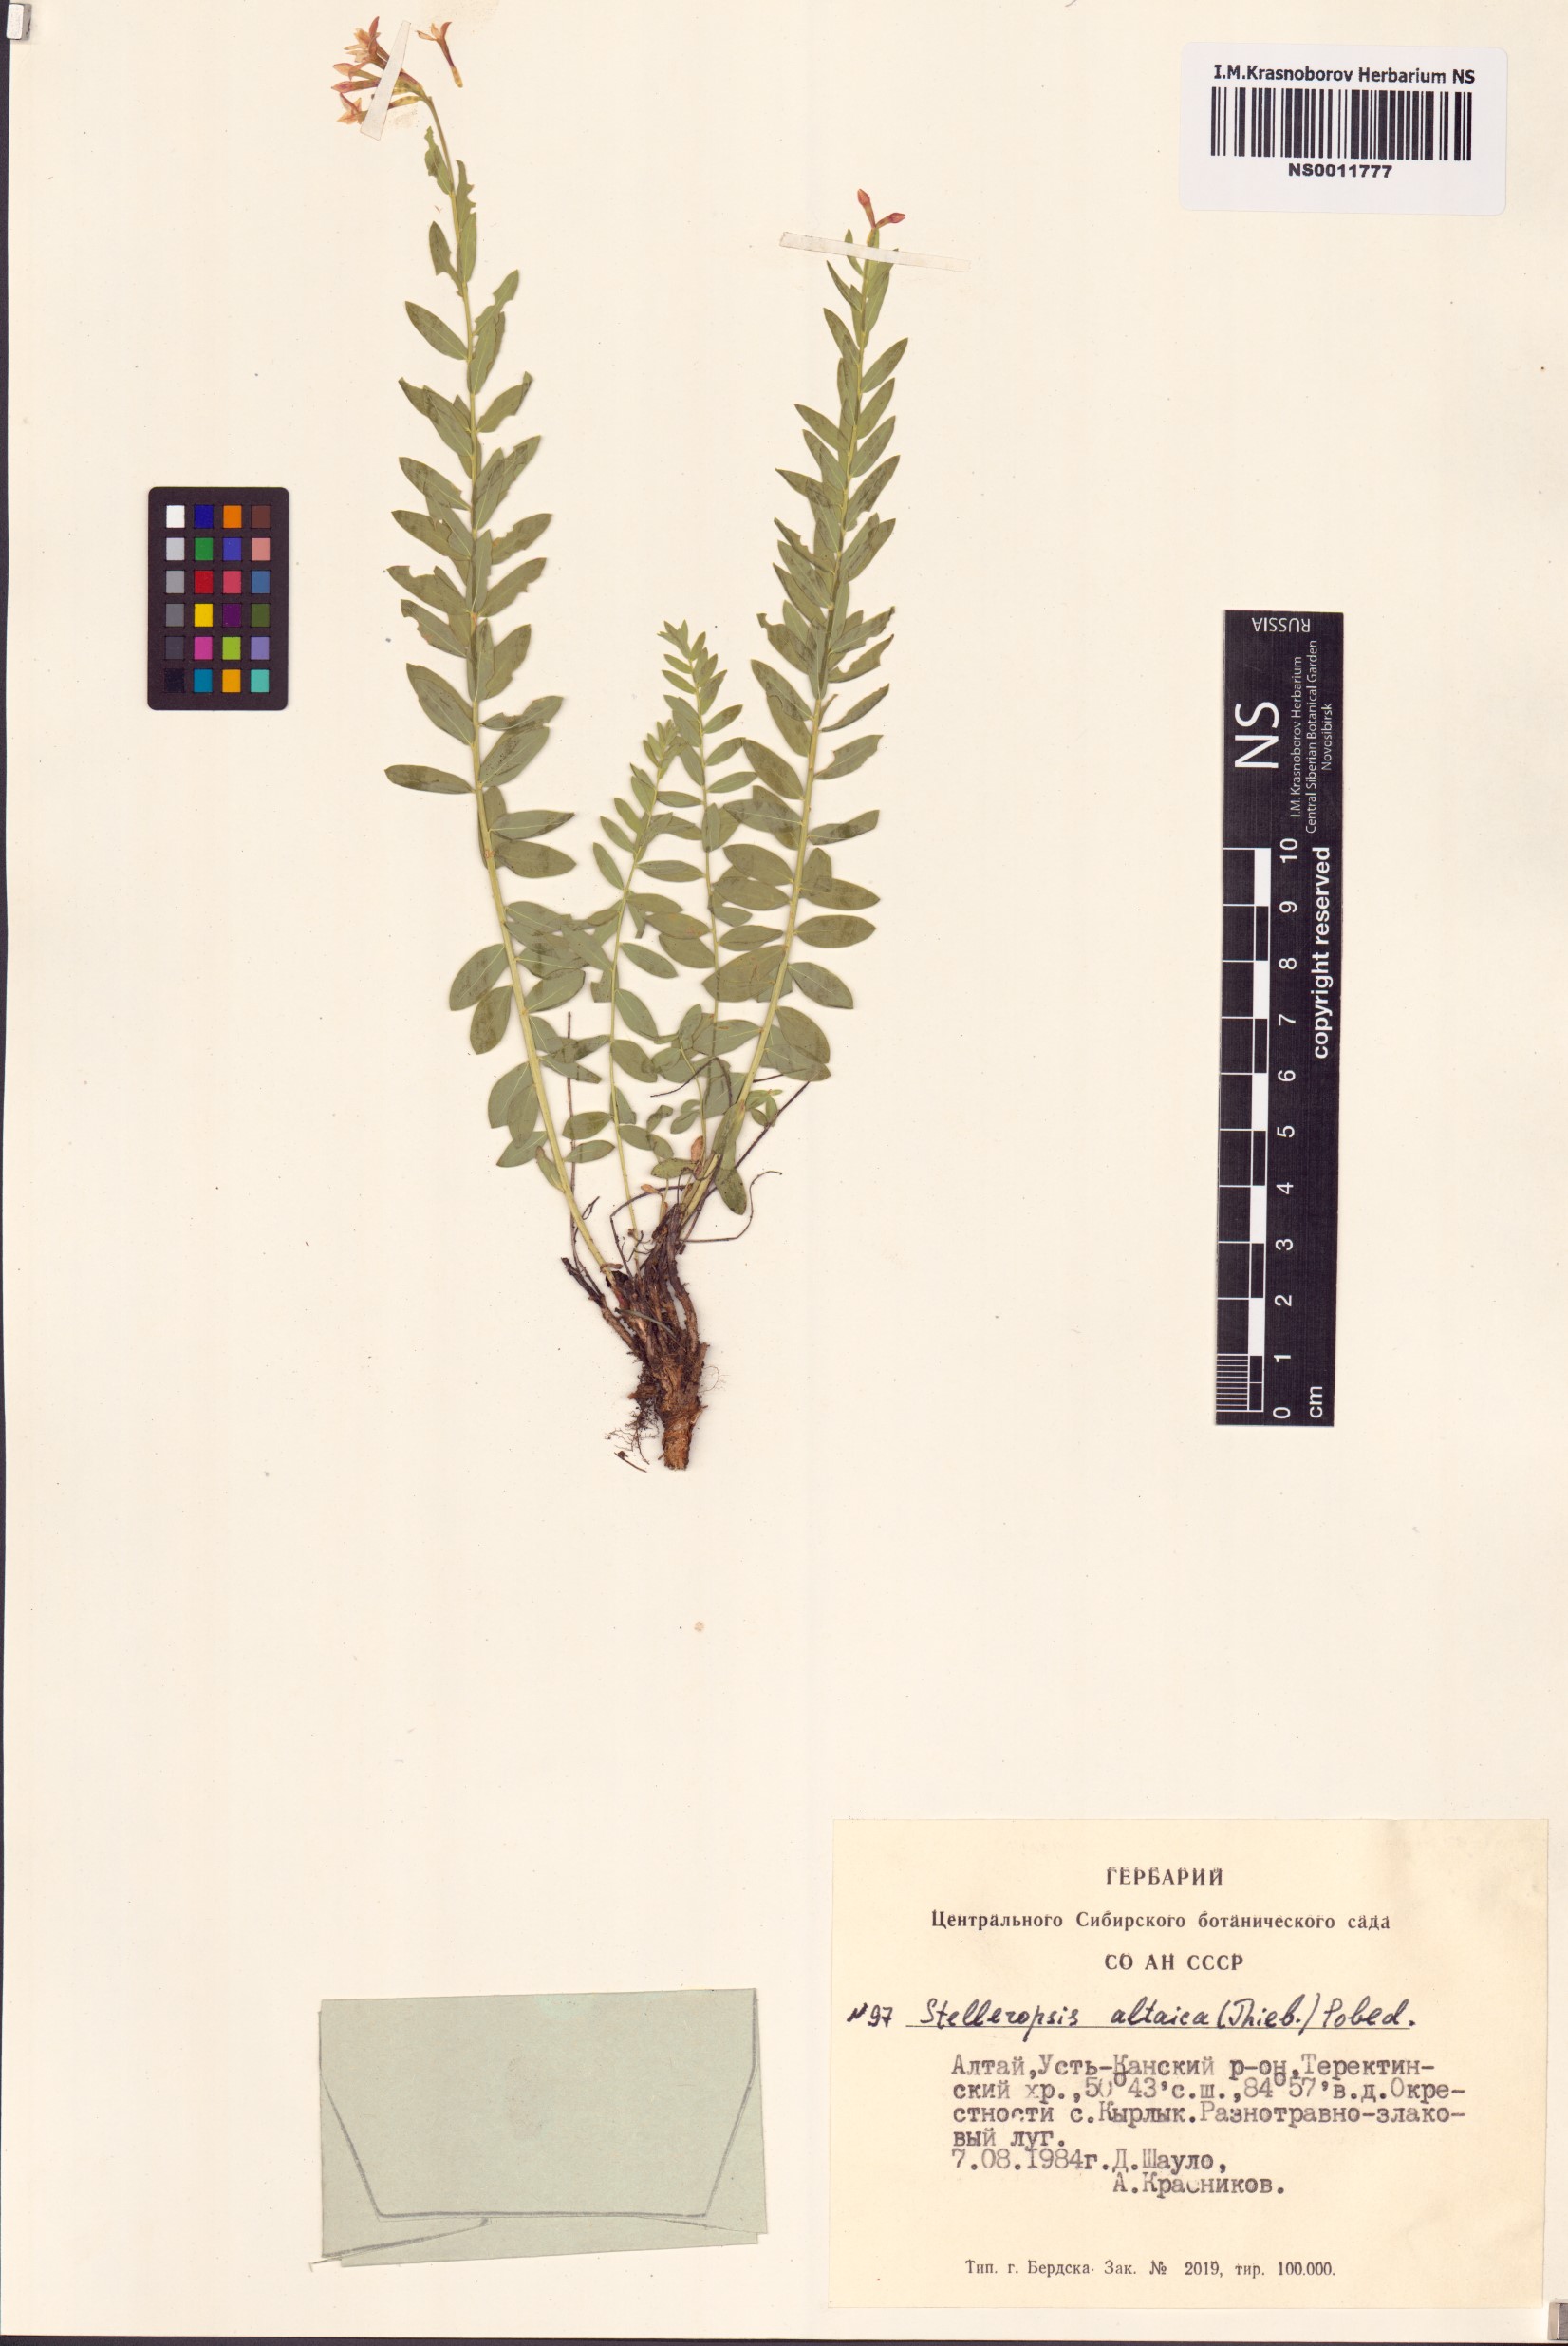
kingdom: Plantae
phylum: Tracheophyta
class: Magnoliopsida
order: Malvales
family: Thymelaeaceae
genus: Diarthron
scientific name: Diarthron altaicum
